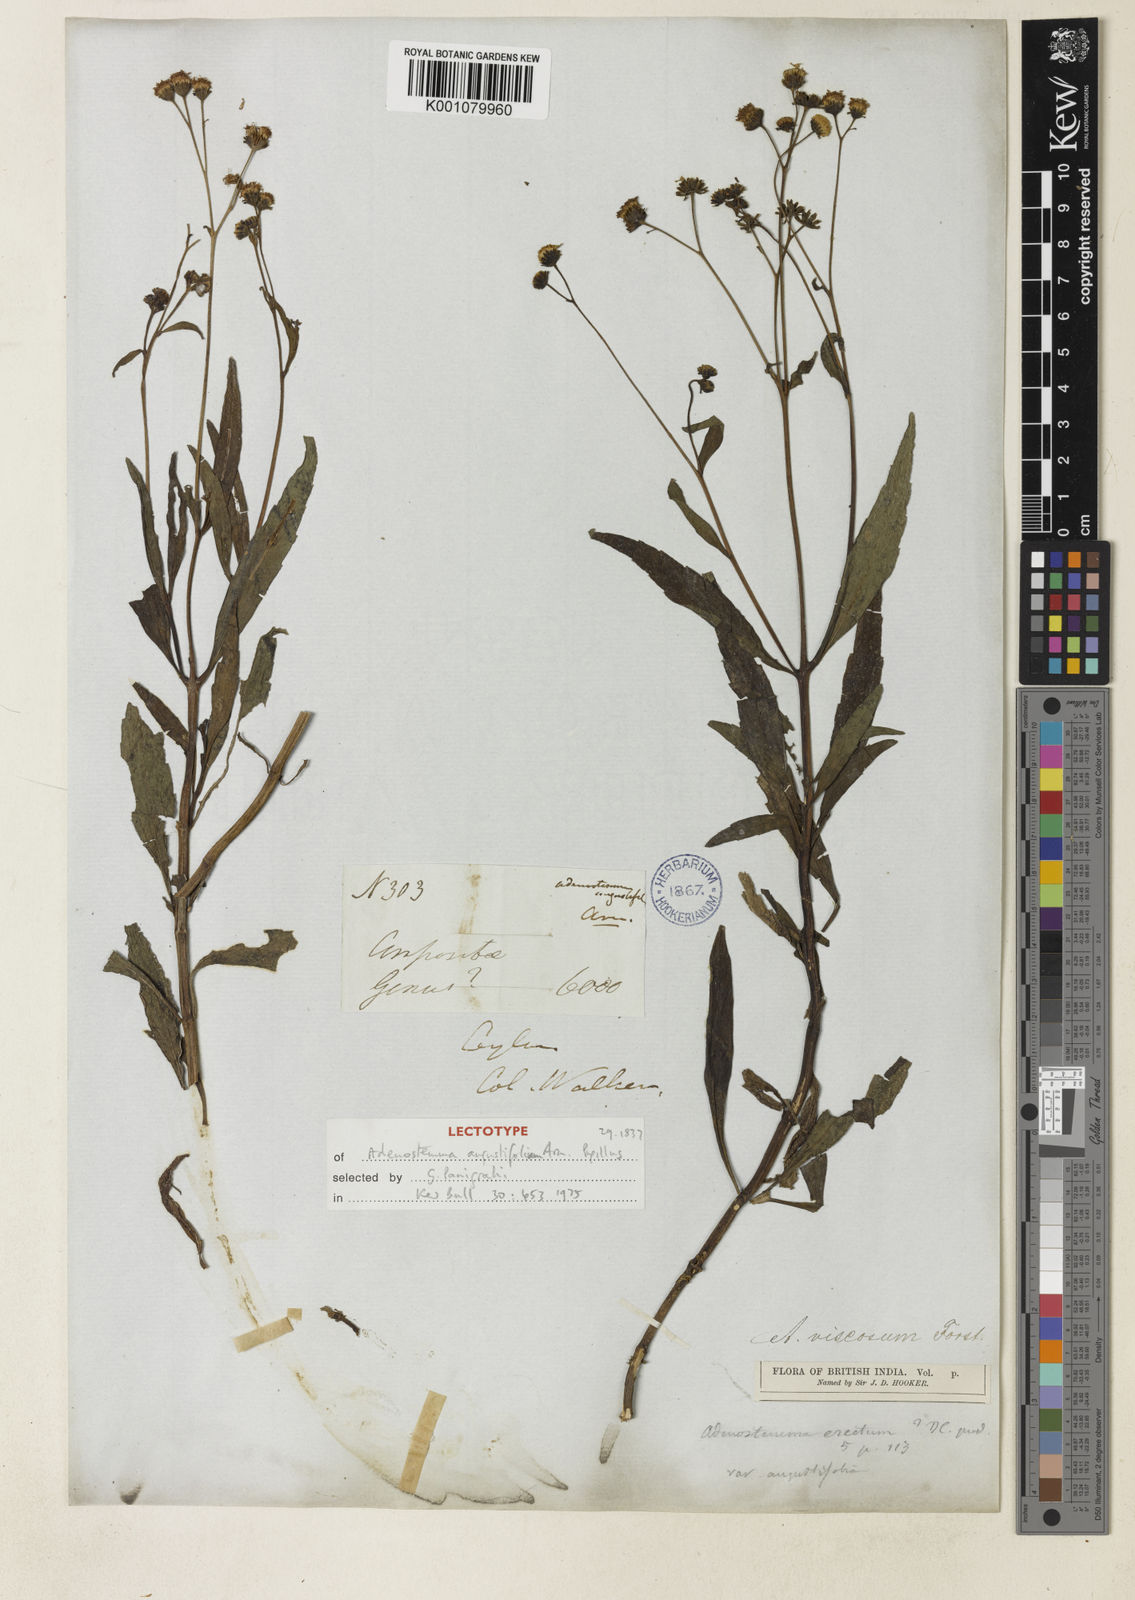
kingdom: Plantae
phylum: Tracheophyta
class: Magnoliopsida
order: Asterales
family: Asteraceae
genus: Adenostemma
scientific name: Adenostemma viscosum
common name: Dungweed
